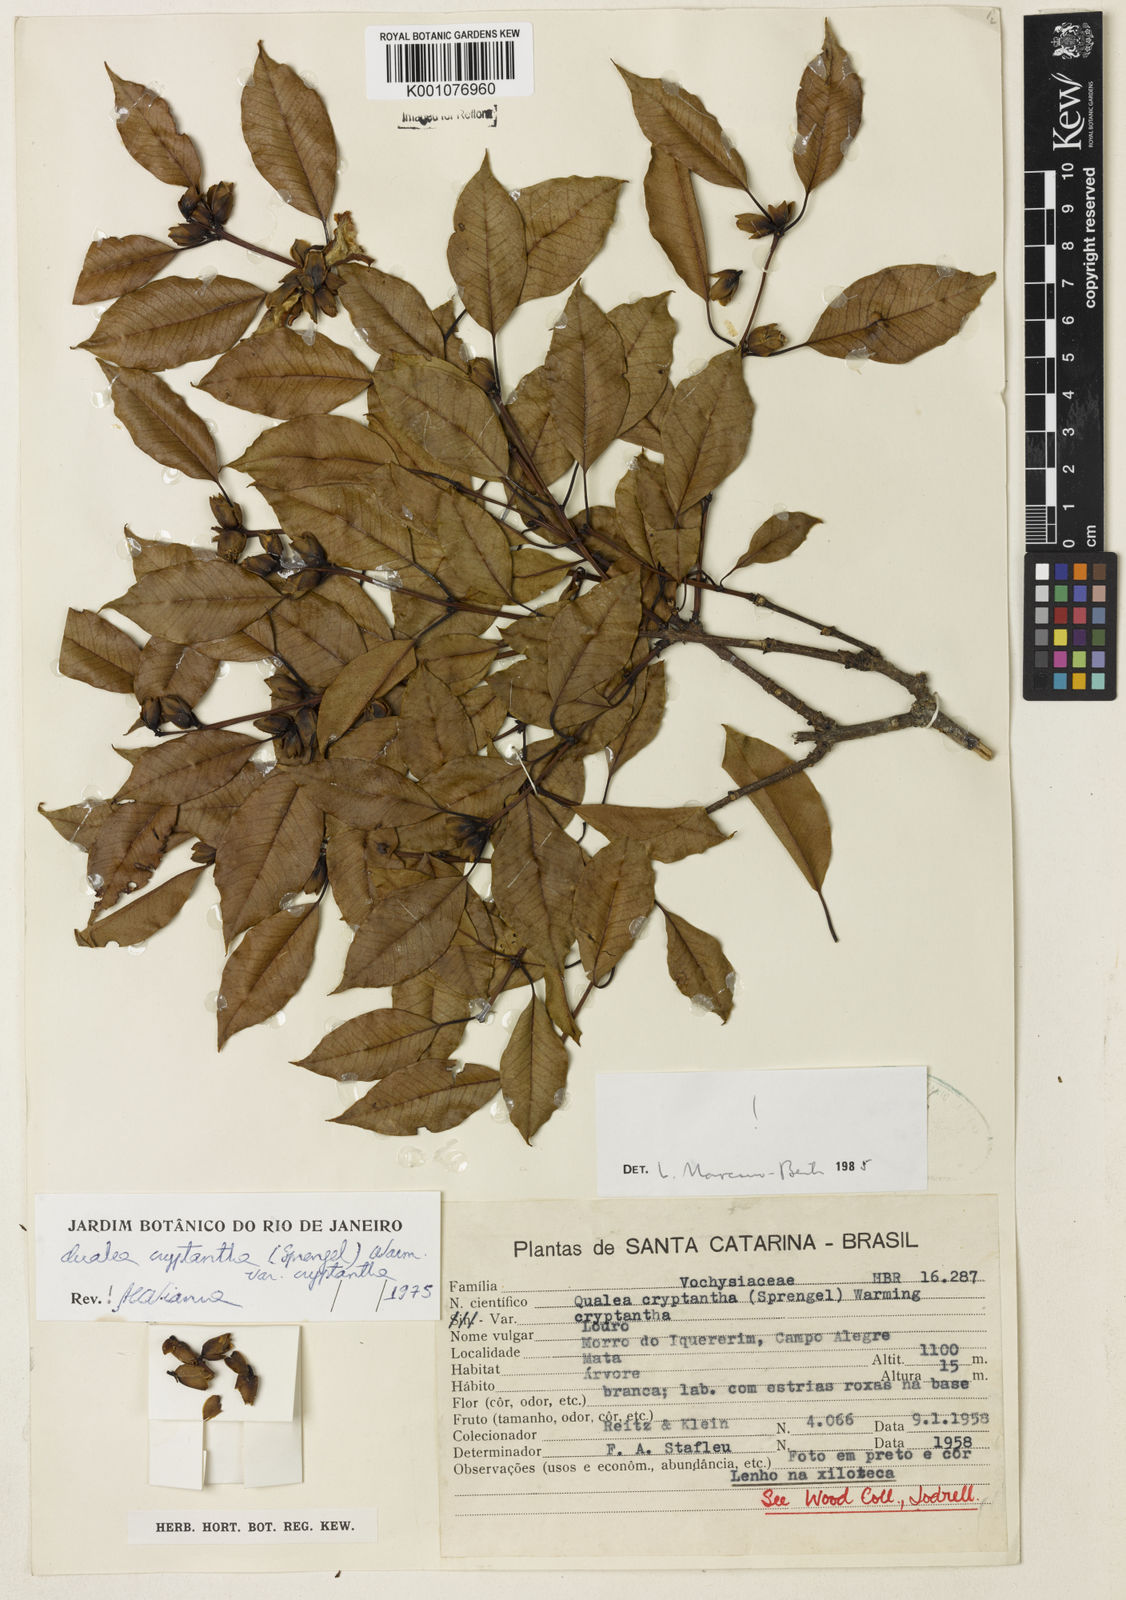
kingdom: Plantae
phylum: Tracheophyta
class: Magnoliopsida
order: Myrtales
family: Vochysiaceae
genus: Qualea
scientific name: Qualea cryptantha
